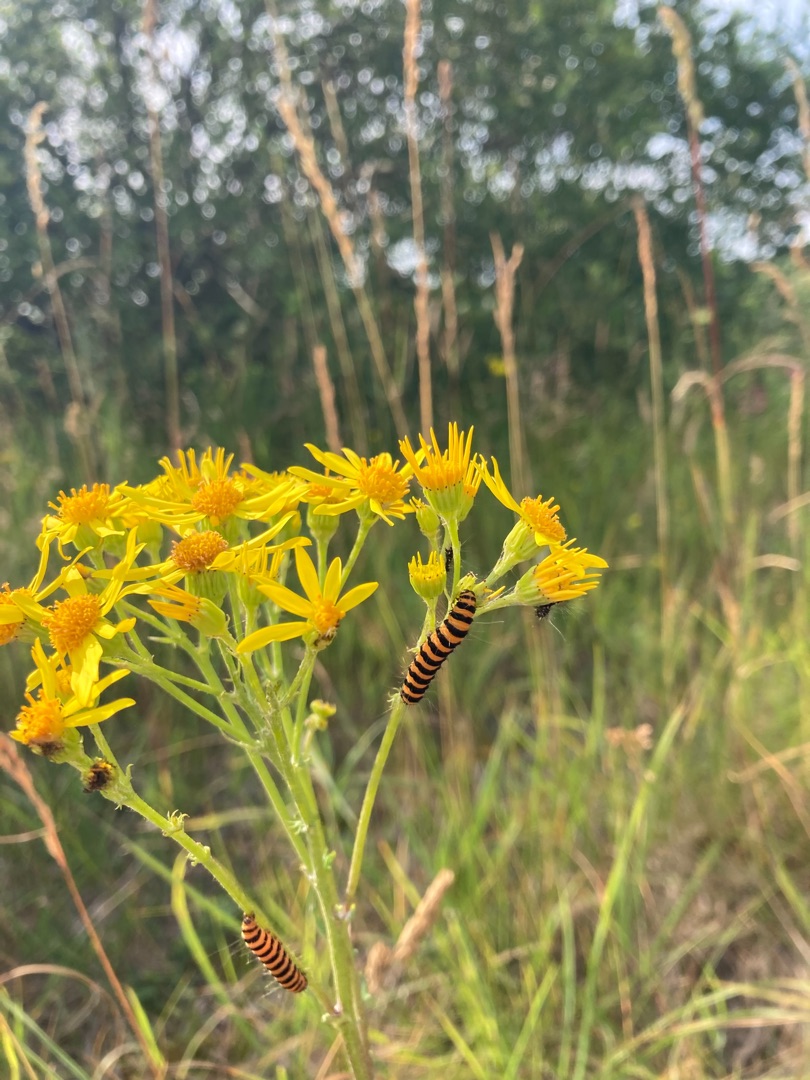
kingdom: Animalia
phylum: Arthropoda
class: Insecta
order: Lepidoptera
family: Erebidae
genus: Tyria
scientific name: Tyria jacobaeae
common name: Blodplet
